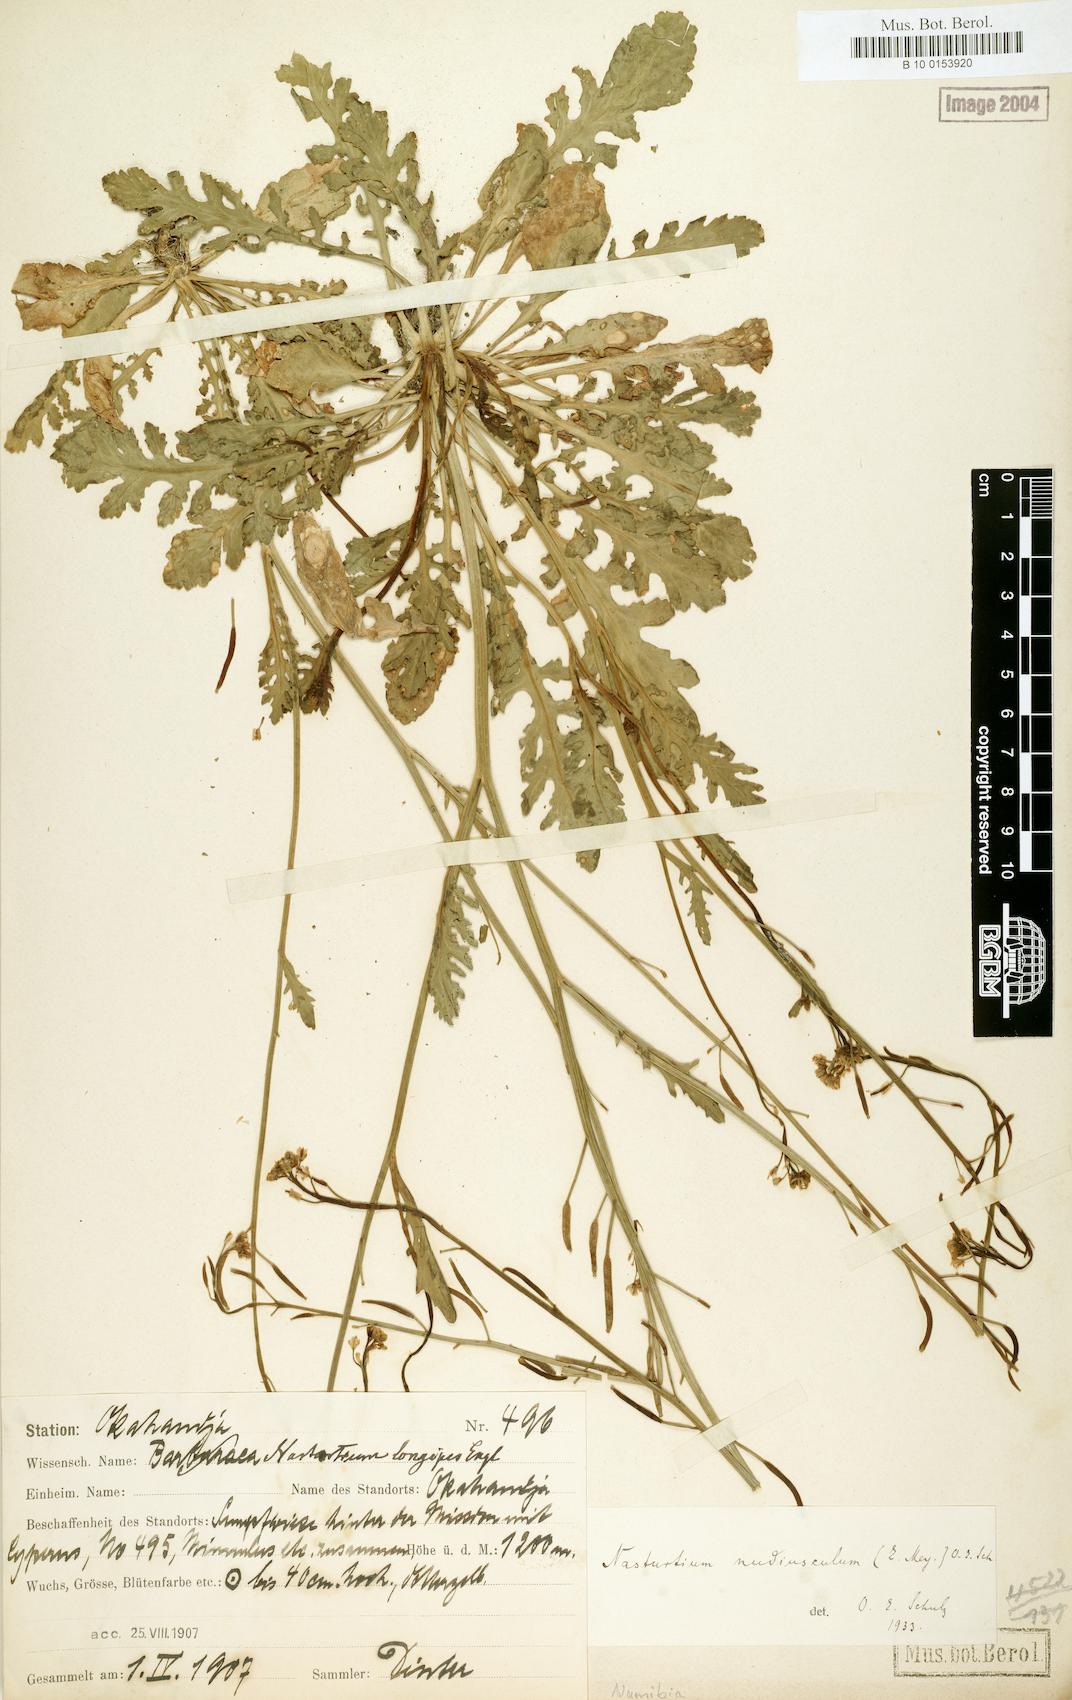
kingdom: Plantae
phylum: Tracheophyta
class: Magnoliopsida
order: Brassicales
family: Brassicaceae
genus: Rorippa
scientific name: Rorippa nudiuscula
